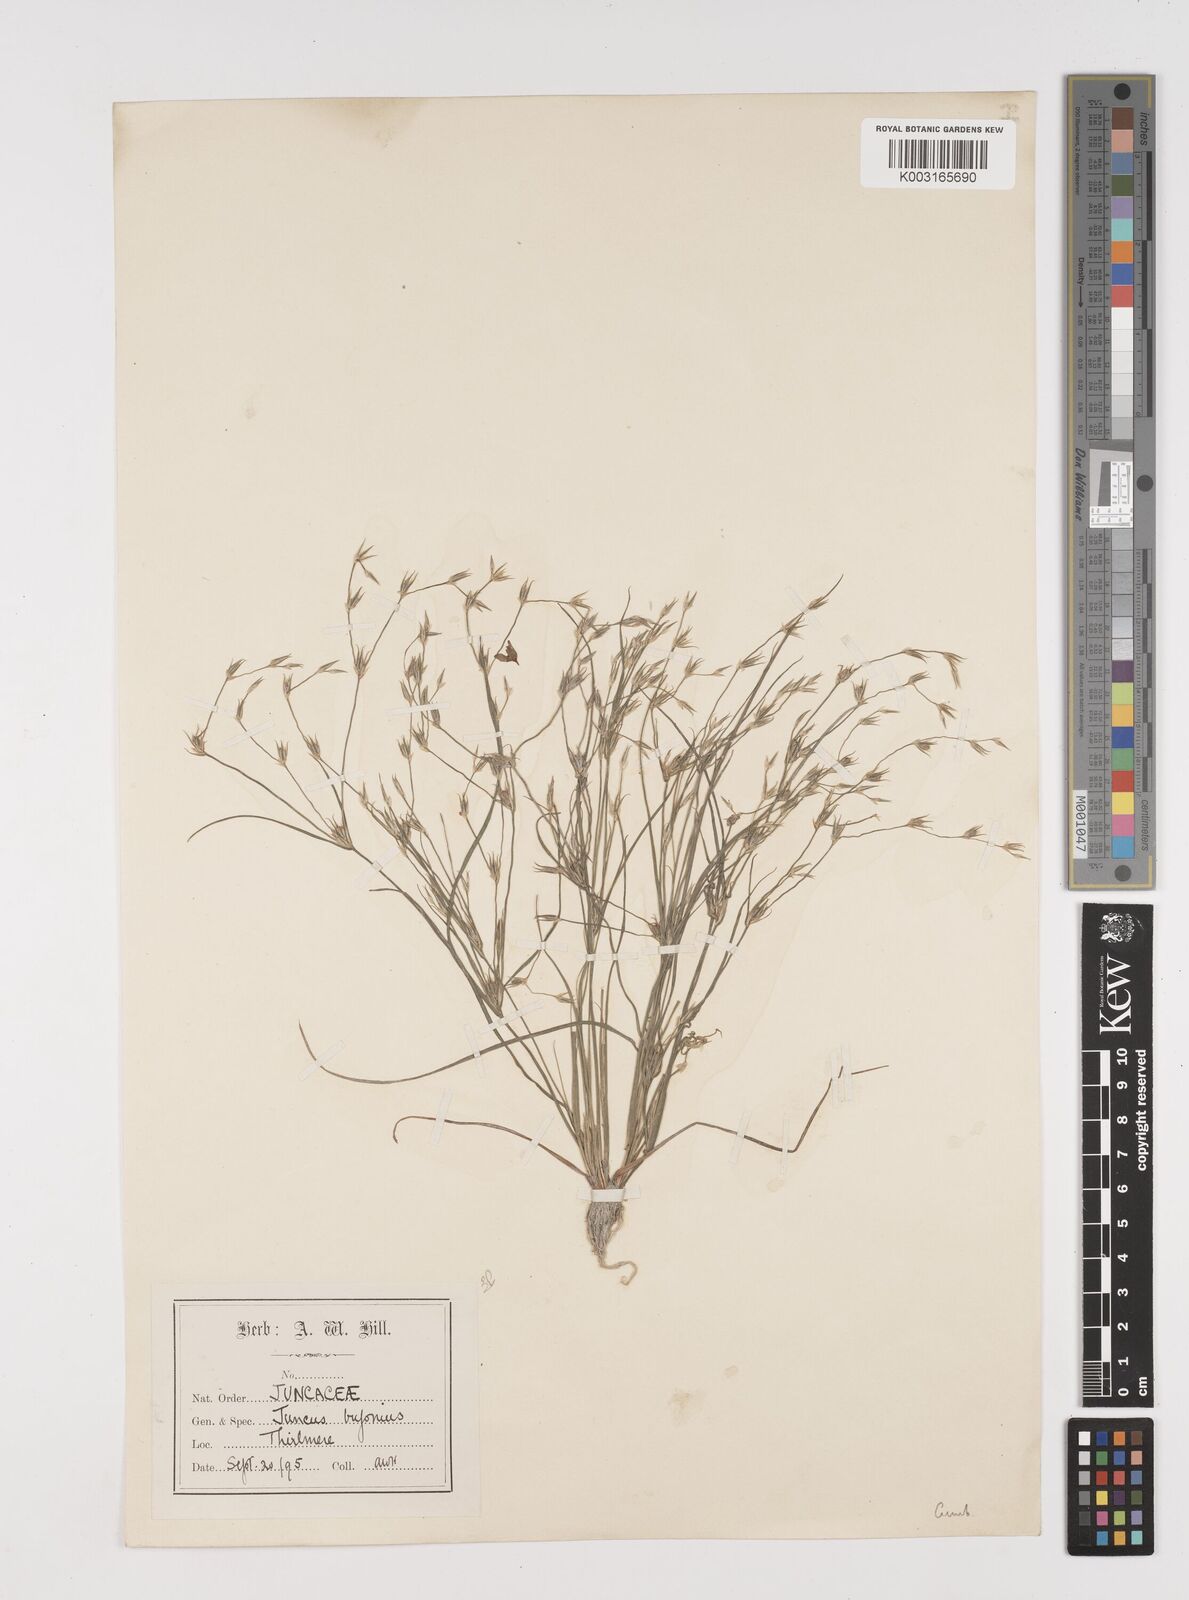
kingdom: Plantae
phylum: Tracheophyta
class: Liliopsida
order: Poales
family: Juncaceae
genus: Juncus
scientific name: Juncus bufonius
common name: Toad rush
